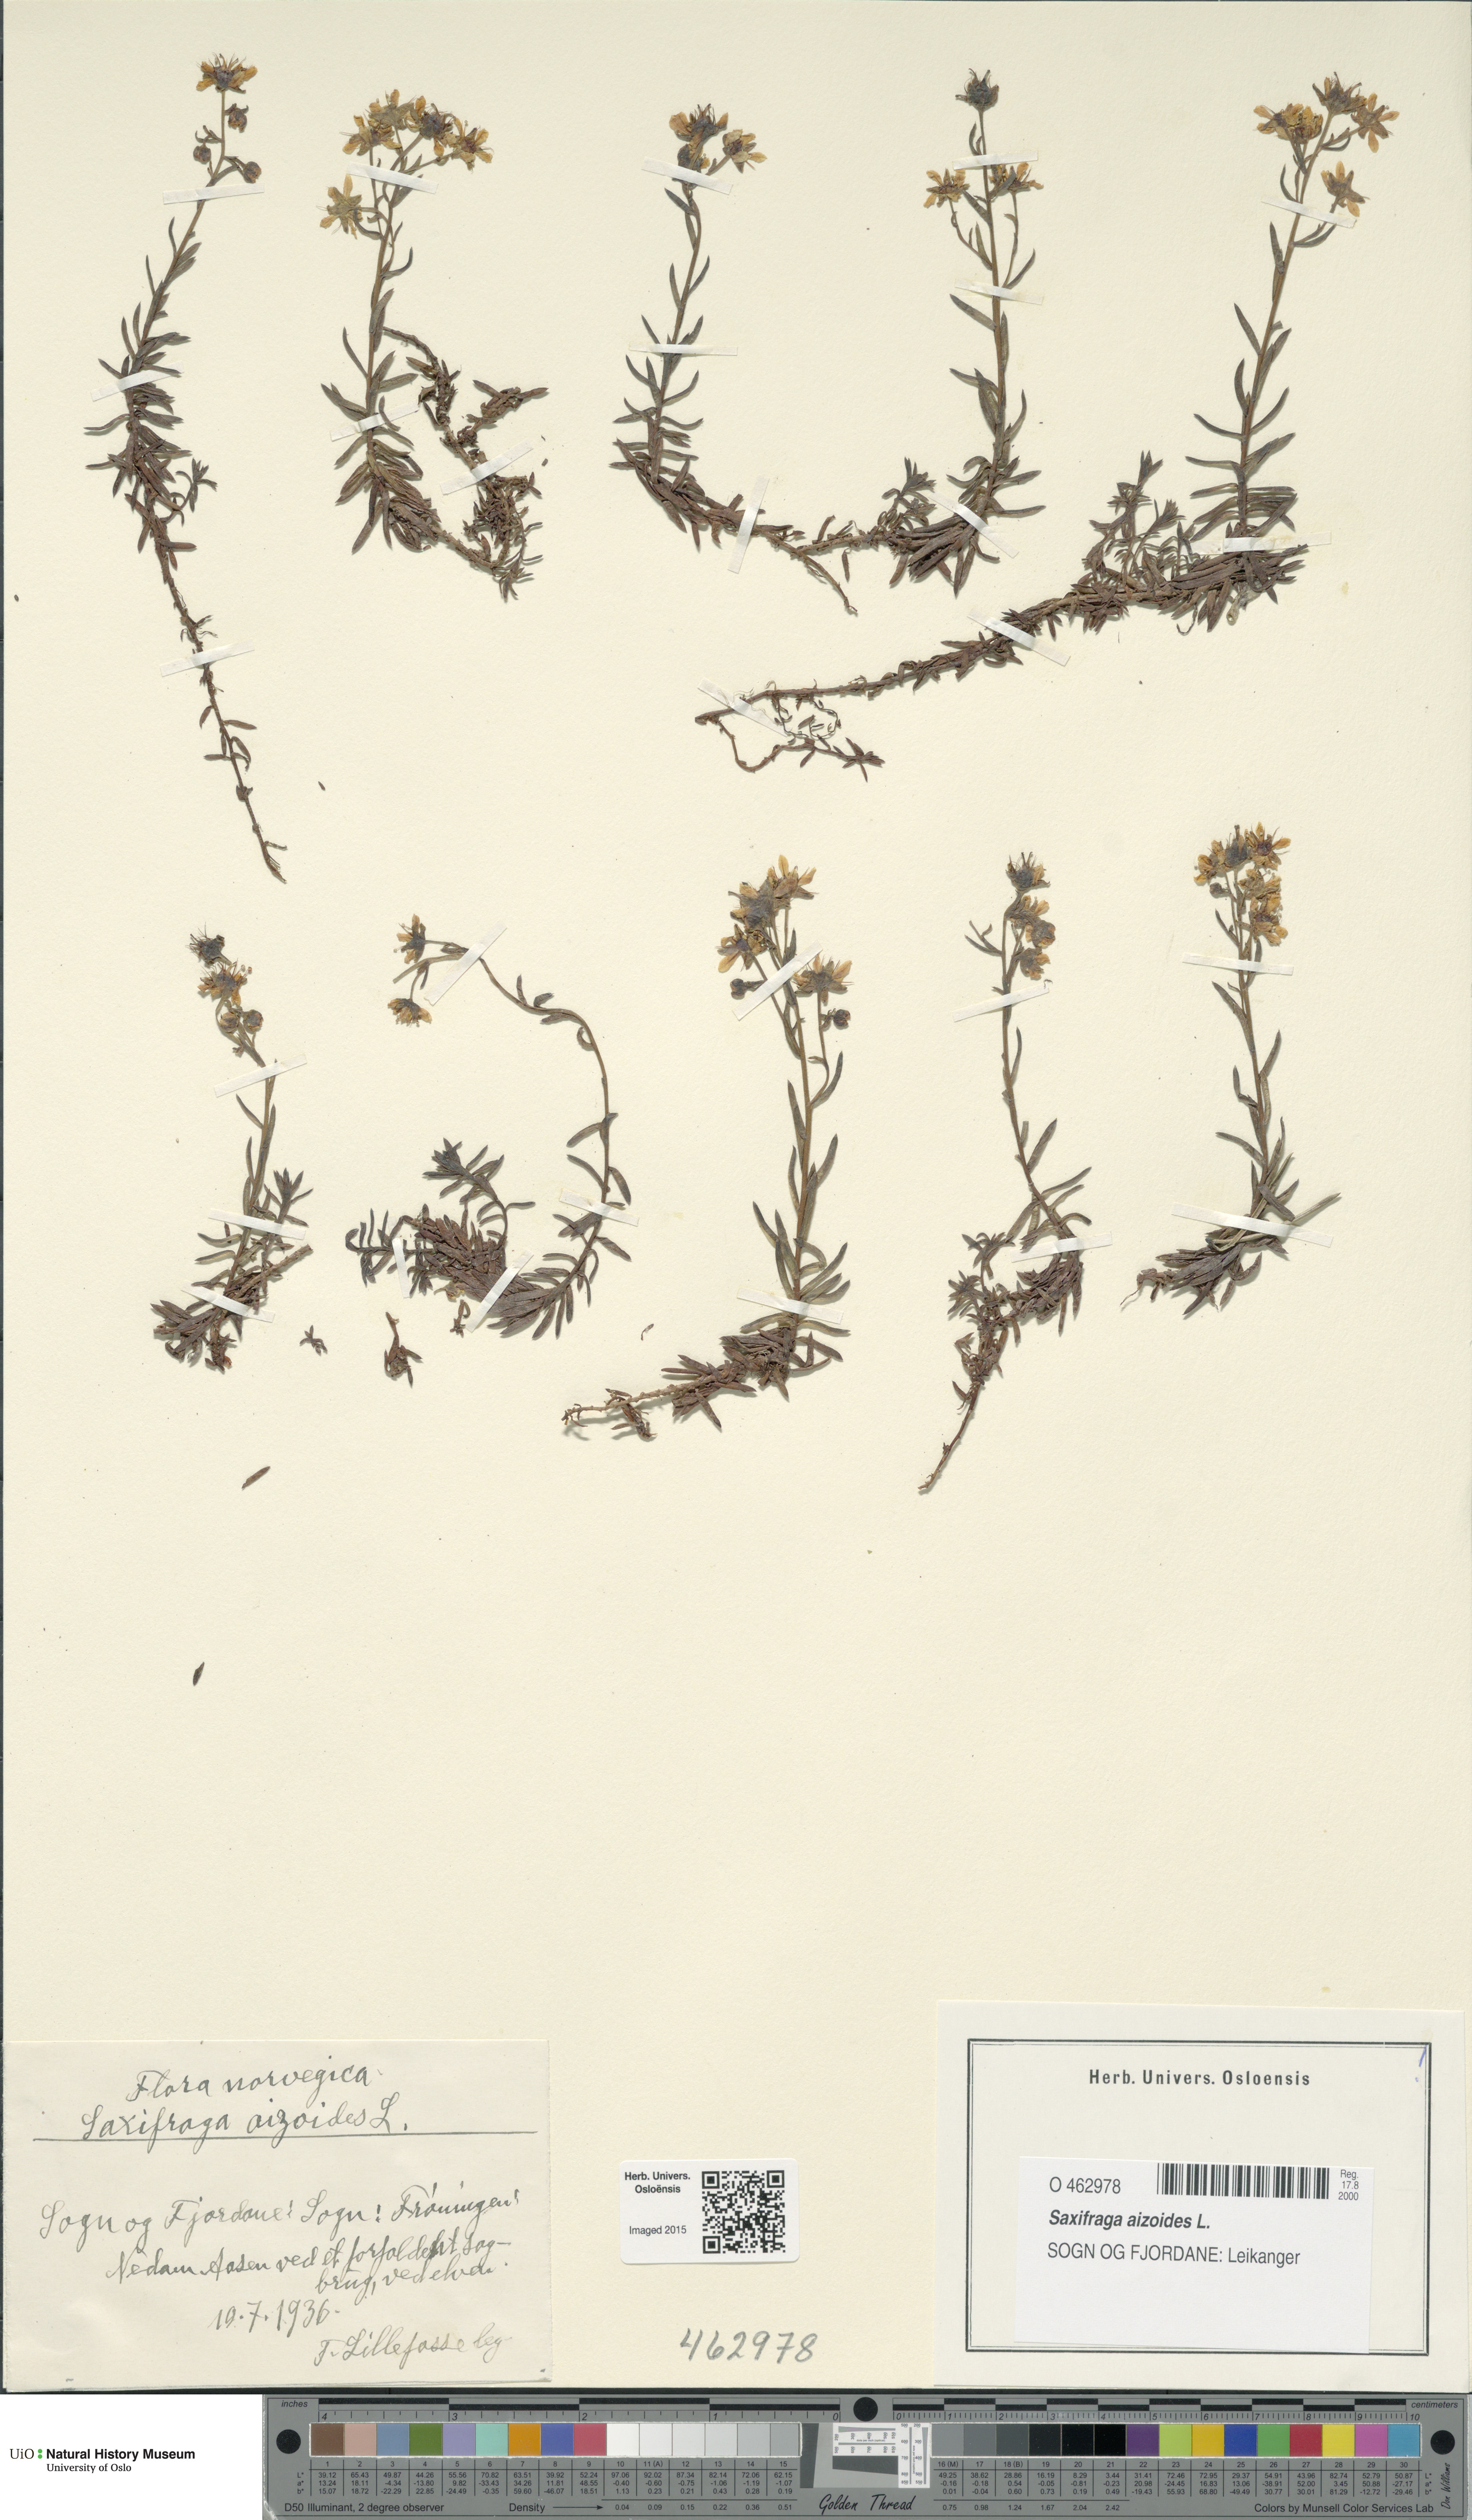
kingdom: Plantae
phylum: Tracheophyta
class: Magnoliopsida
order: Saxifragales
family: Saxifragaceae
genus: Saxifraga
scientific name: Saxifraga aizoides
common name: Yellow mountain saxifrage
